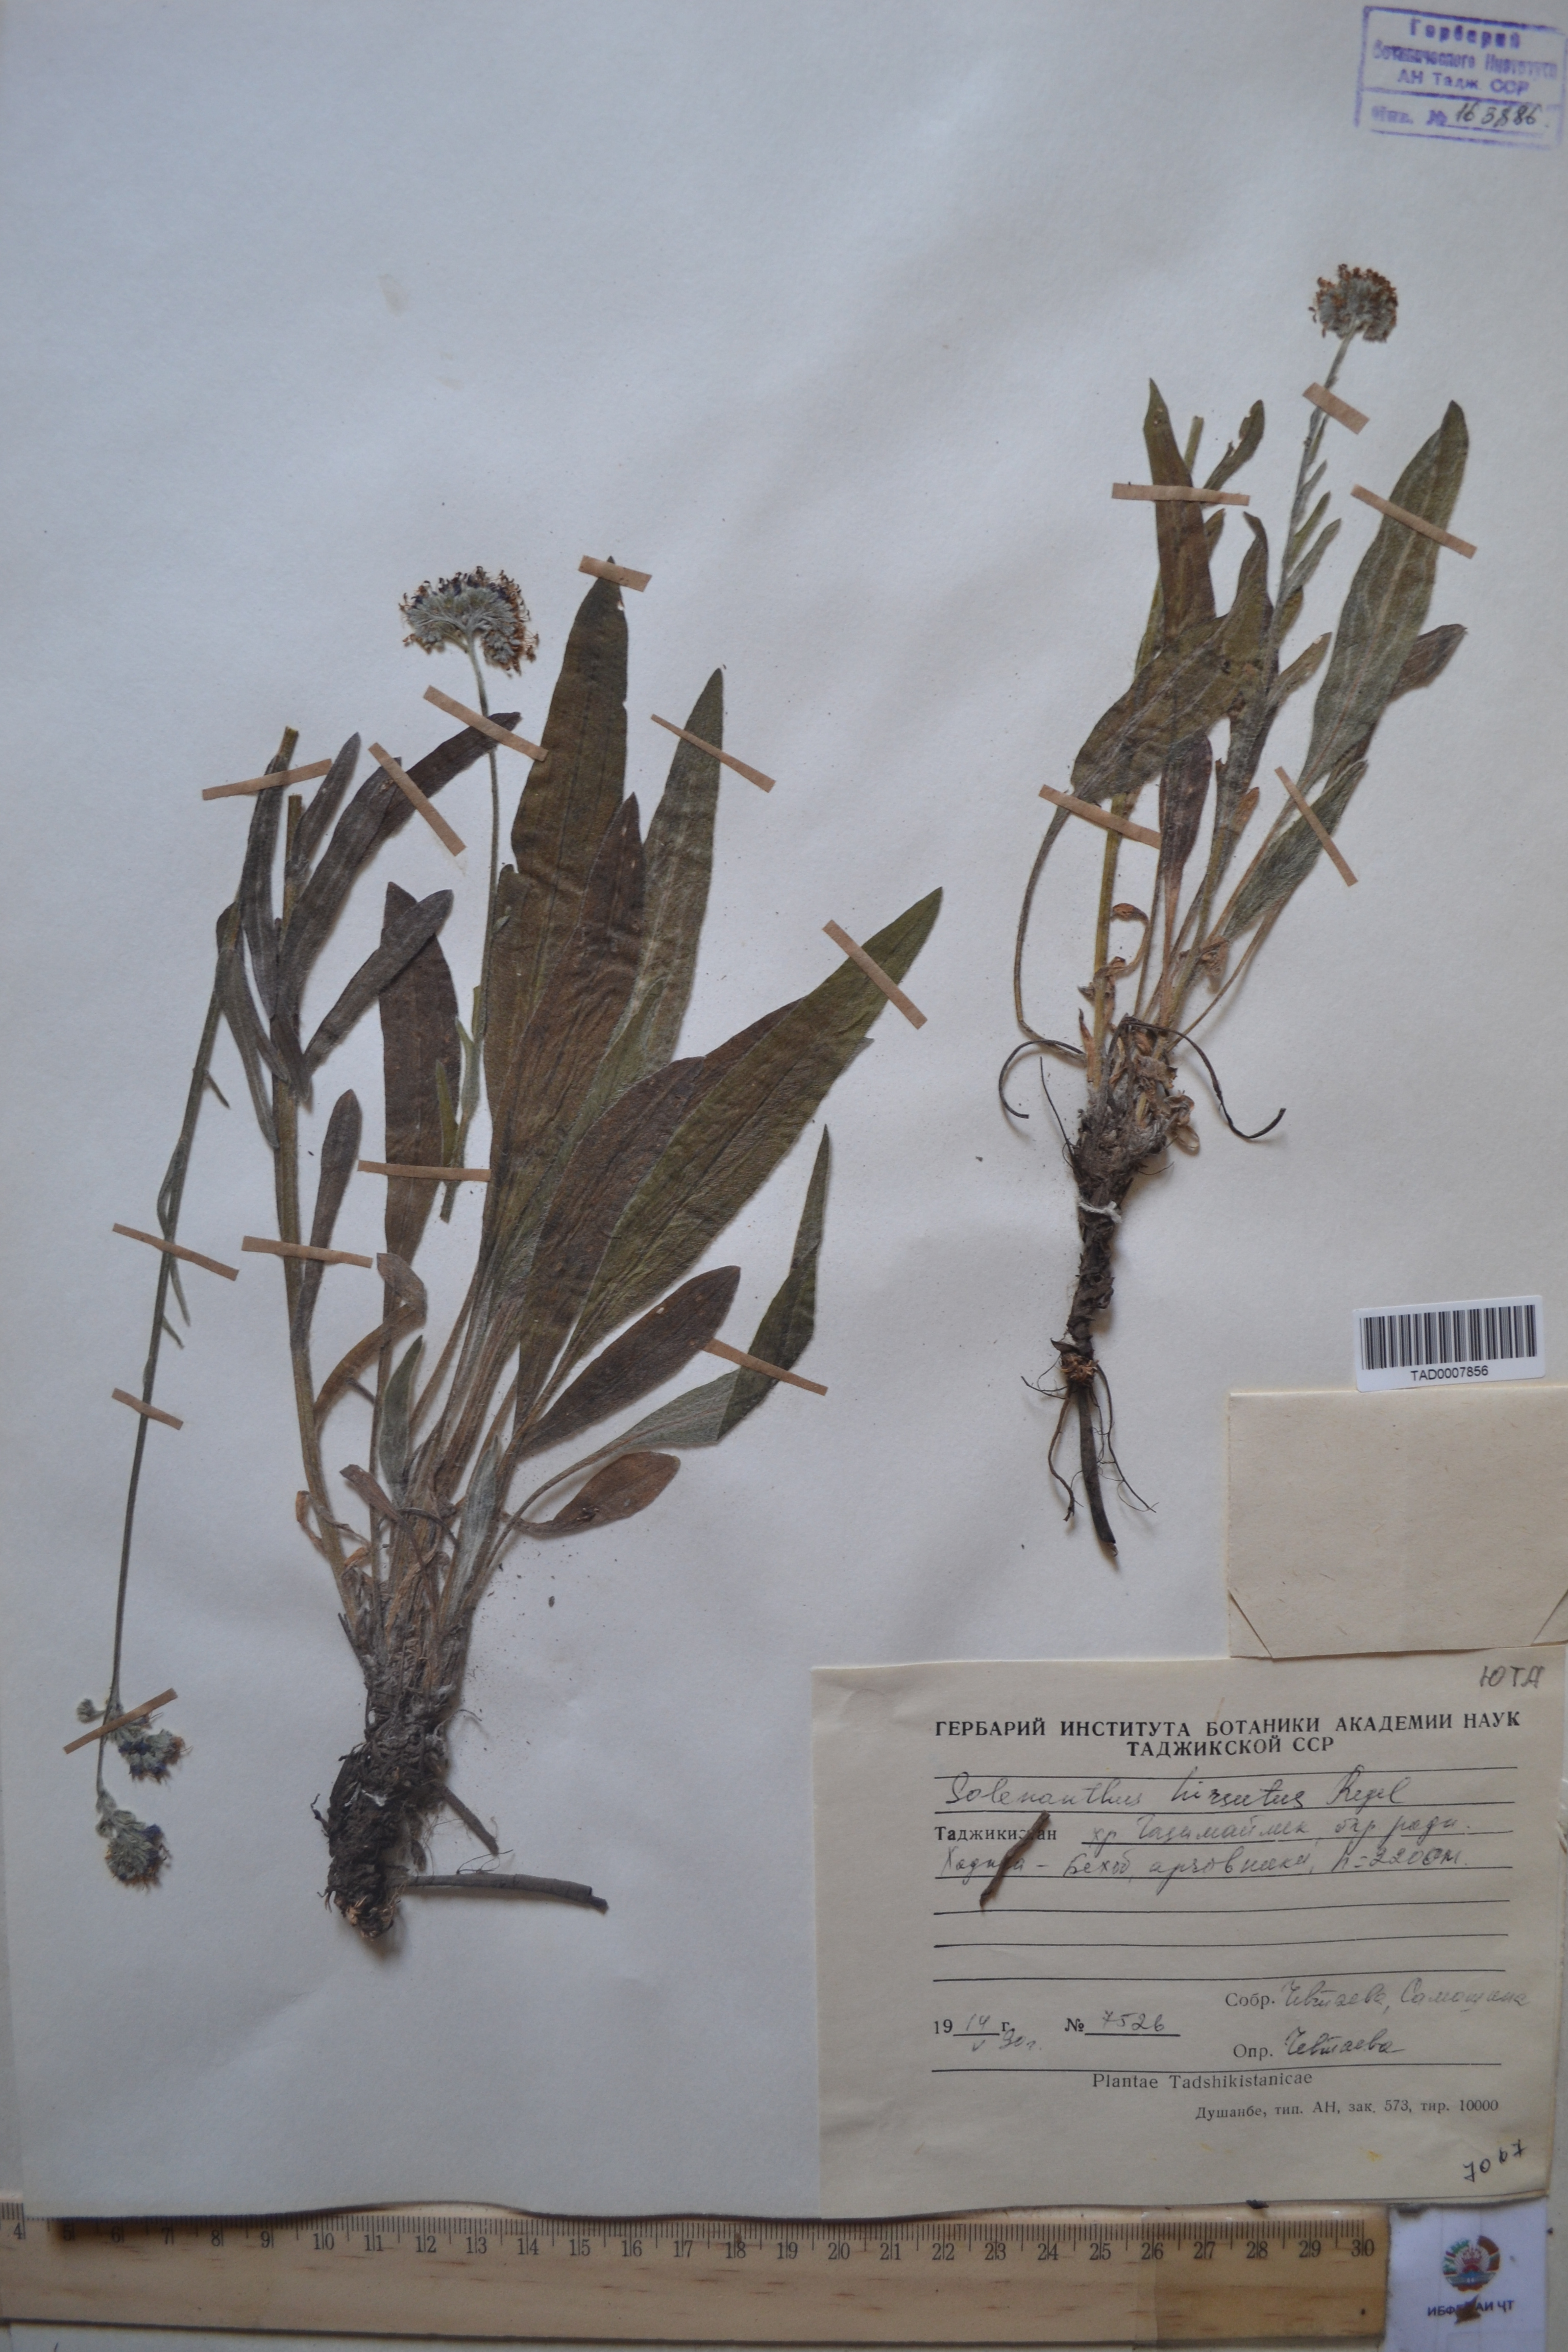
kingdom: Plantae
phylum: Tracheophyta
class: Magnoliopsida
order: Boraginales
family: Boraginaceae
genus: Solenanthus
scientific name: Solenanthus hirsutus
